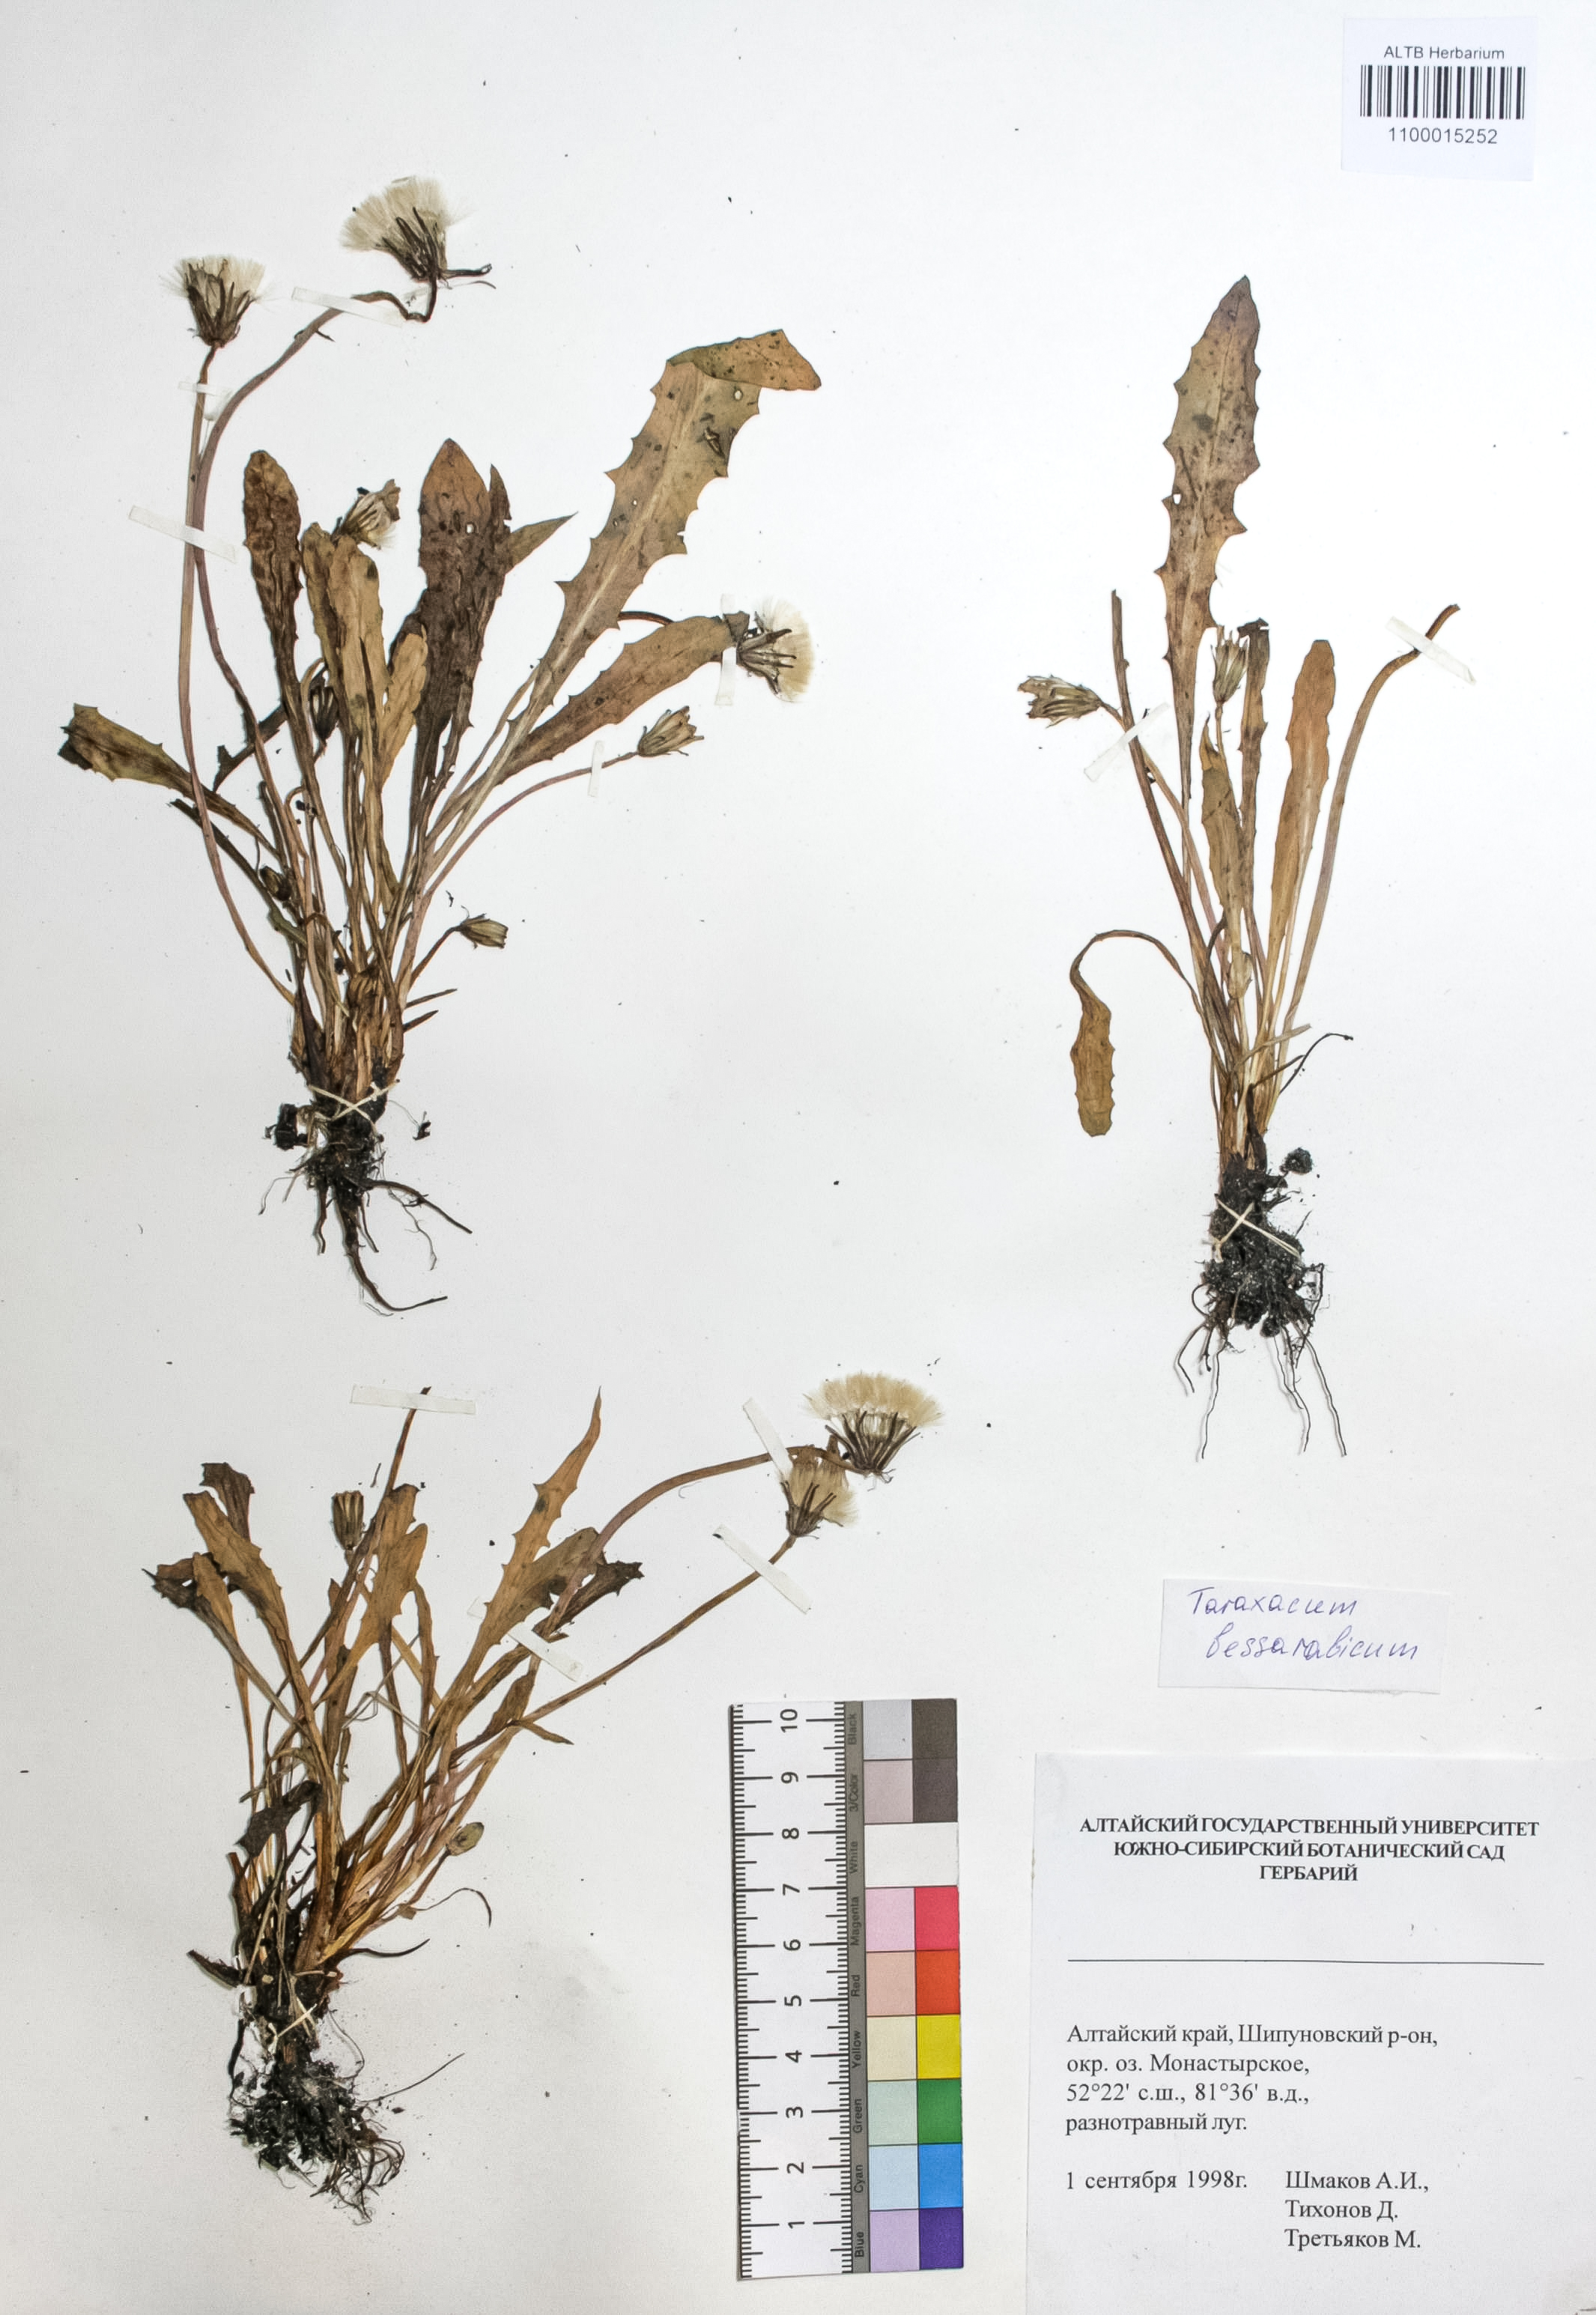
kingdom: Plantae
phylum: Tracheophyta
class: Magnoliopsida
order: Asterales
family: Asteraceae
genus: Taraxacum
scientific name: Taraxacum bessarabicum
